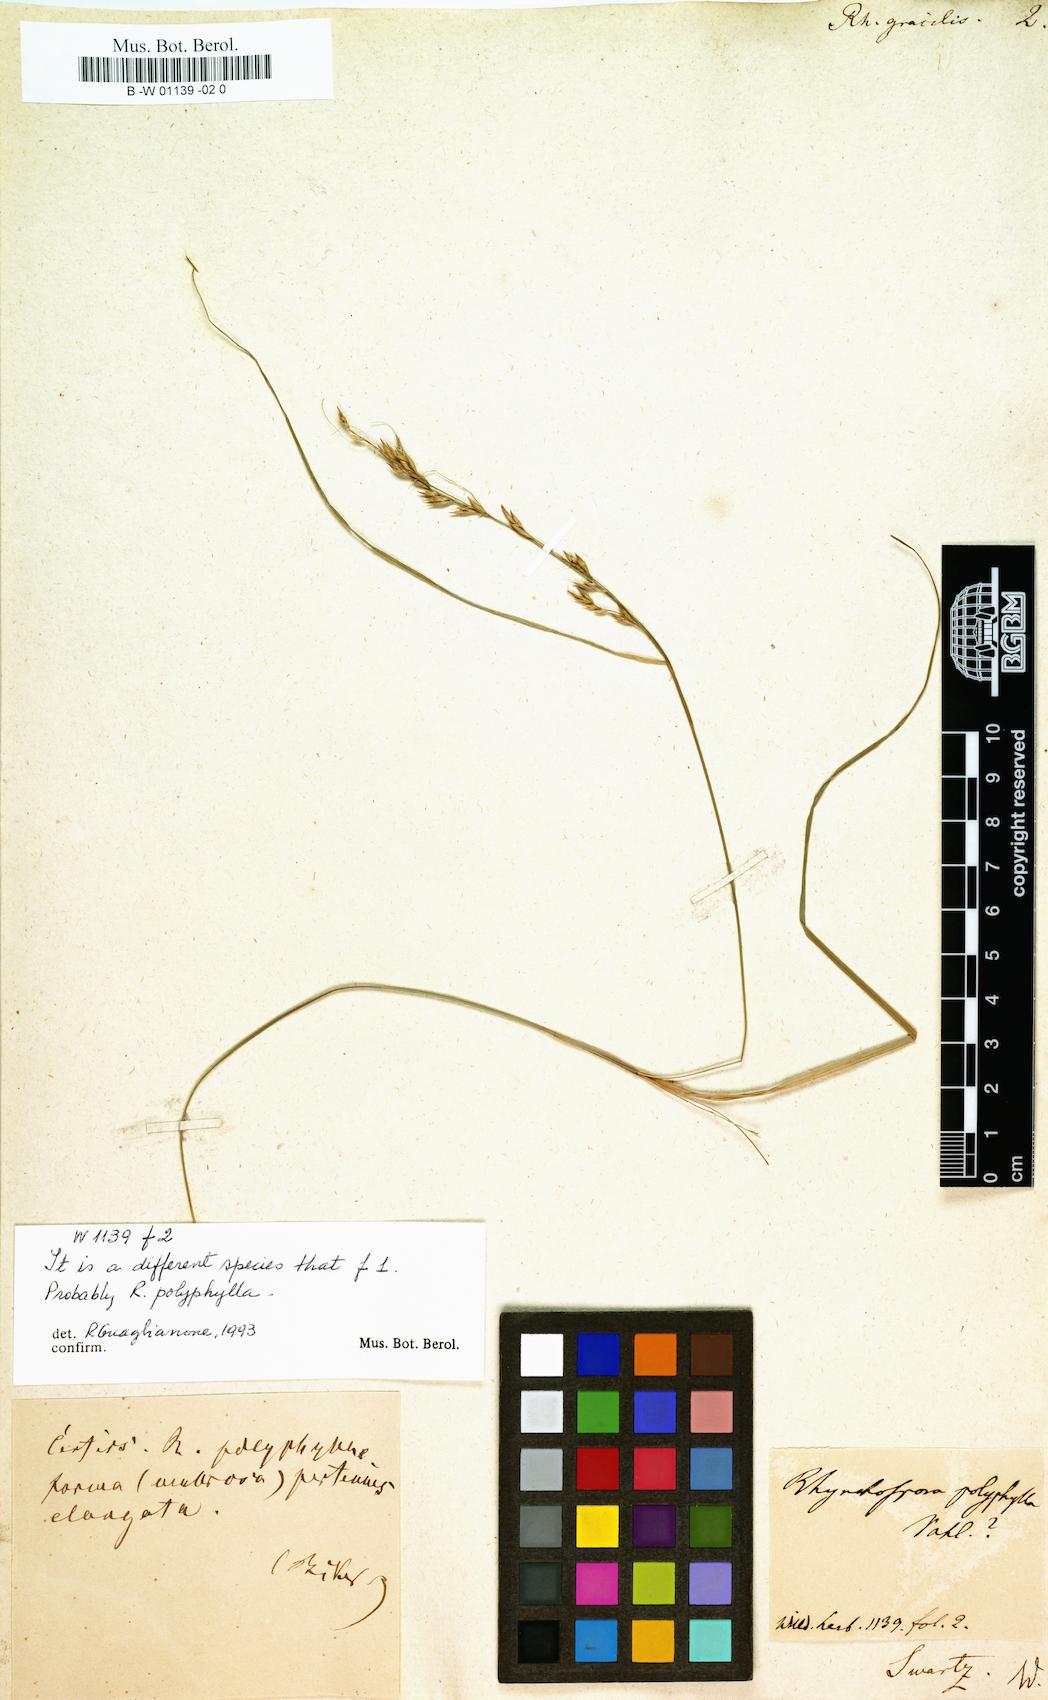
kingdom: Plantae
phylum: Tracheophyta
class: Liliopsida
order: Poales
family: Cyperaceae
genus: Rhynchospora
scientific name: Rhynchospora
